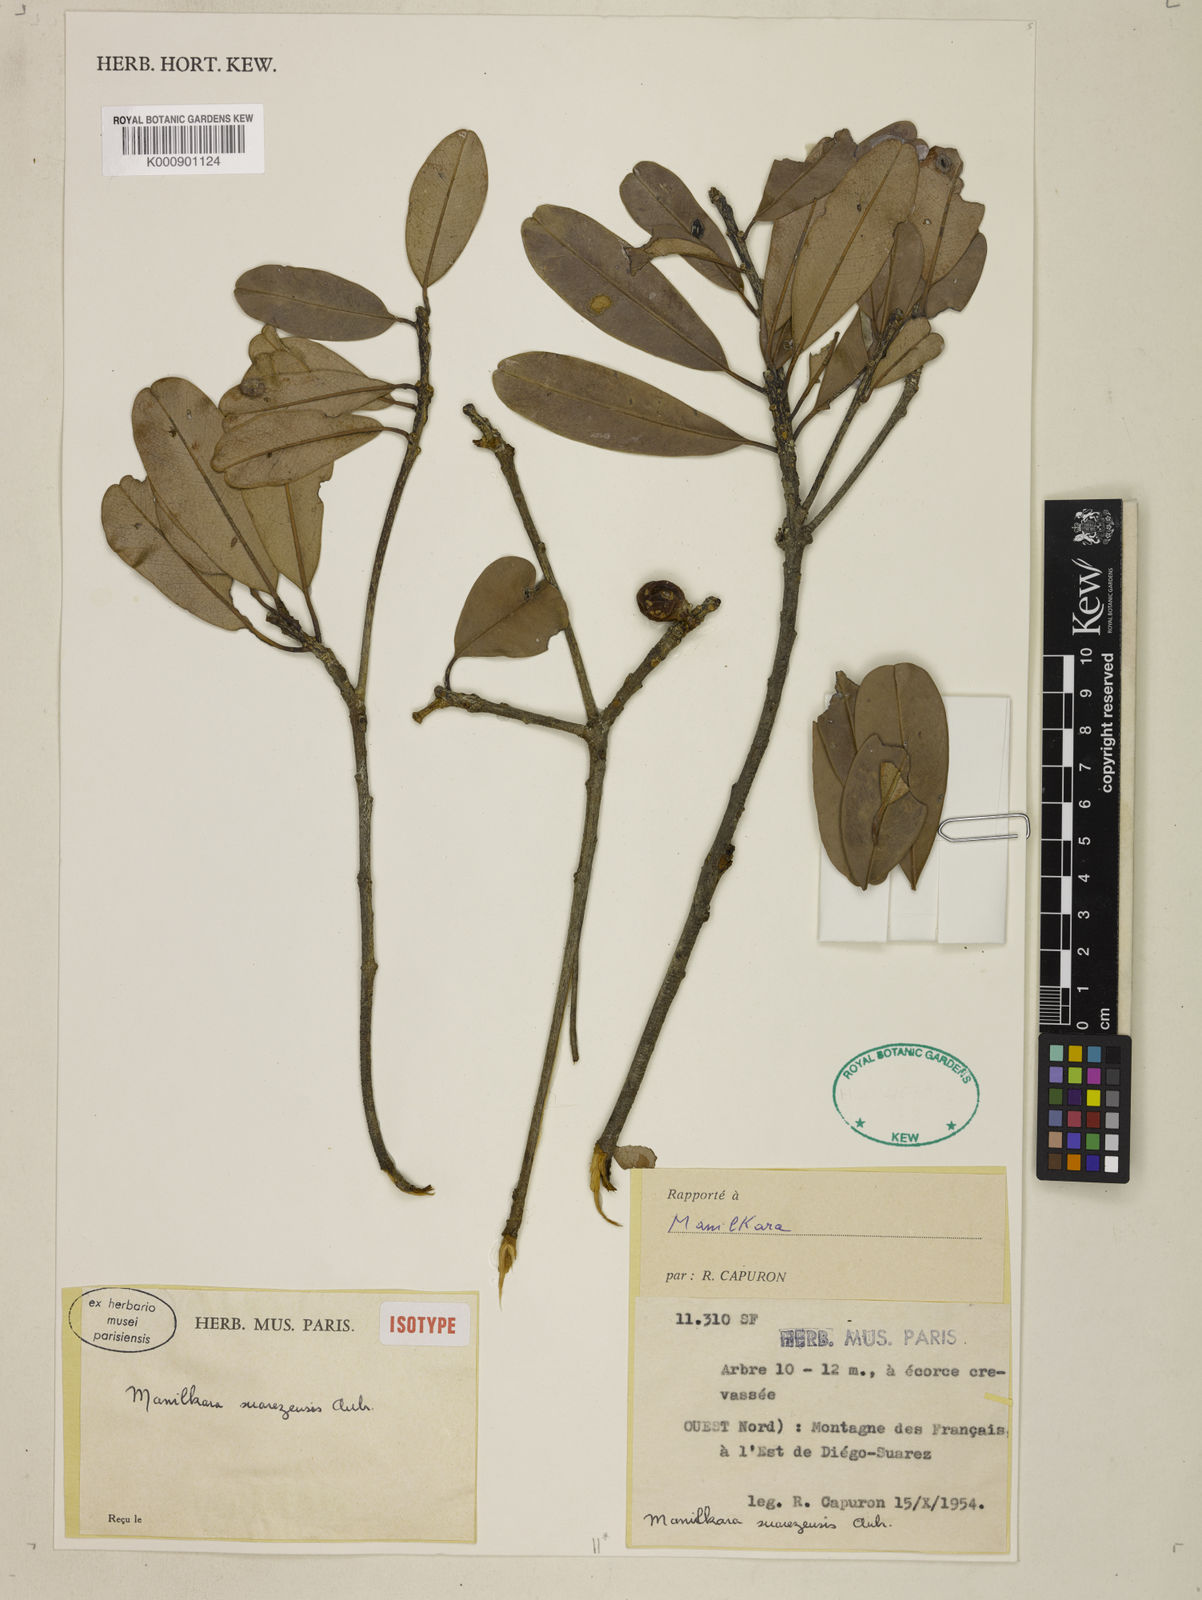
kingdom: Plantae
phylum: Tracheophyta
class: Magnoliopsida
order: Ericales
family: Sapotaceae
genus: Manilkara
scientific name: Manilkara
